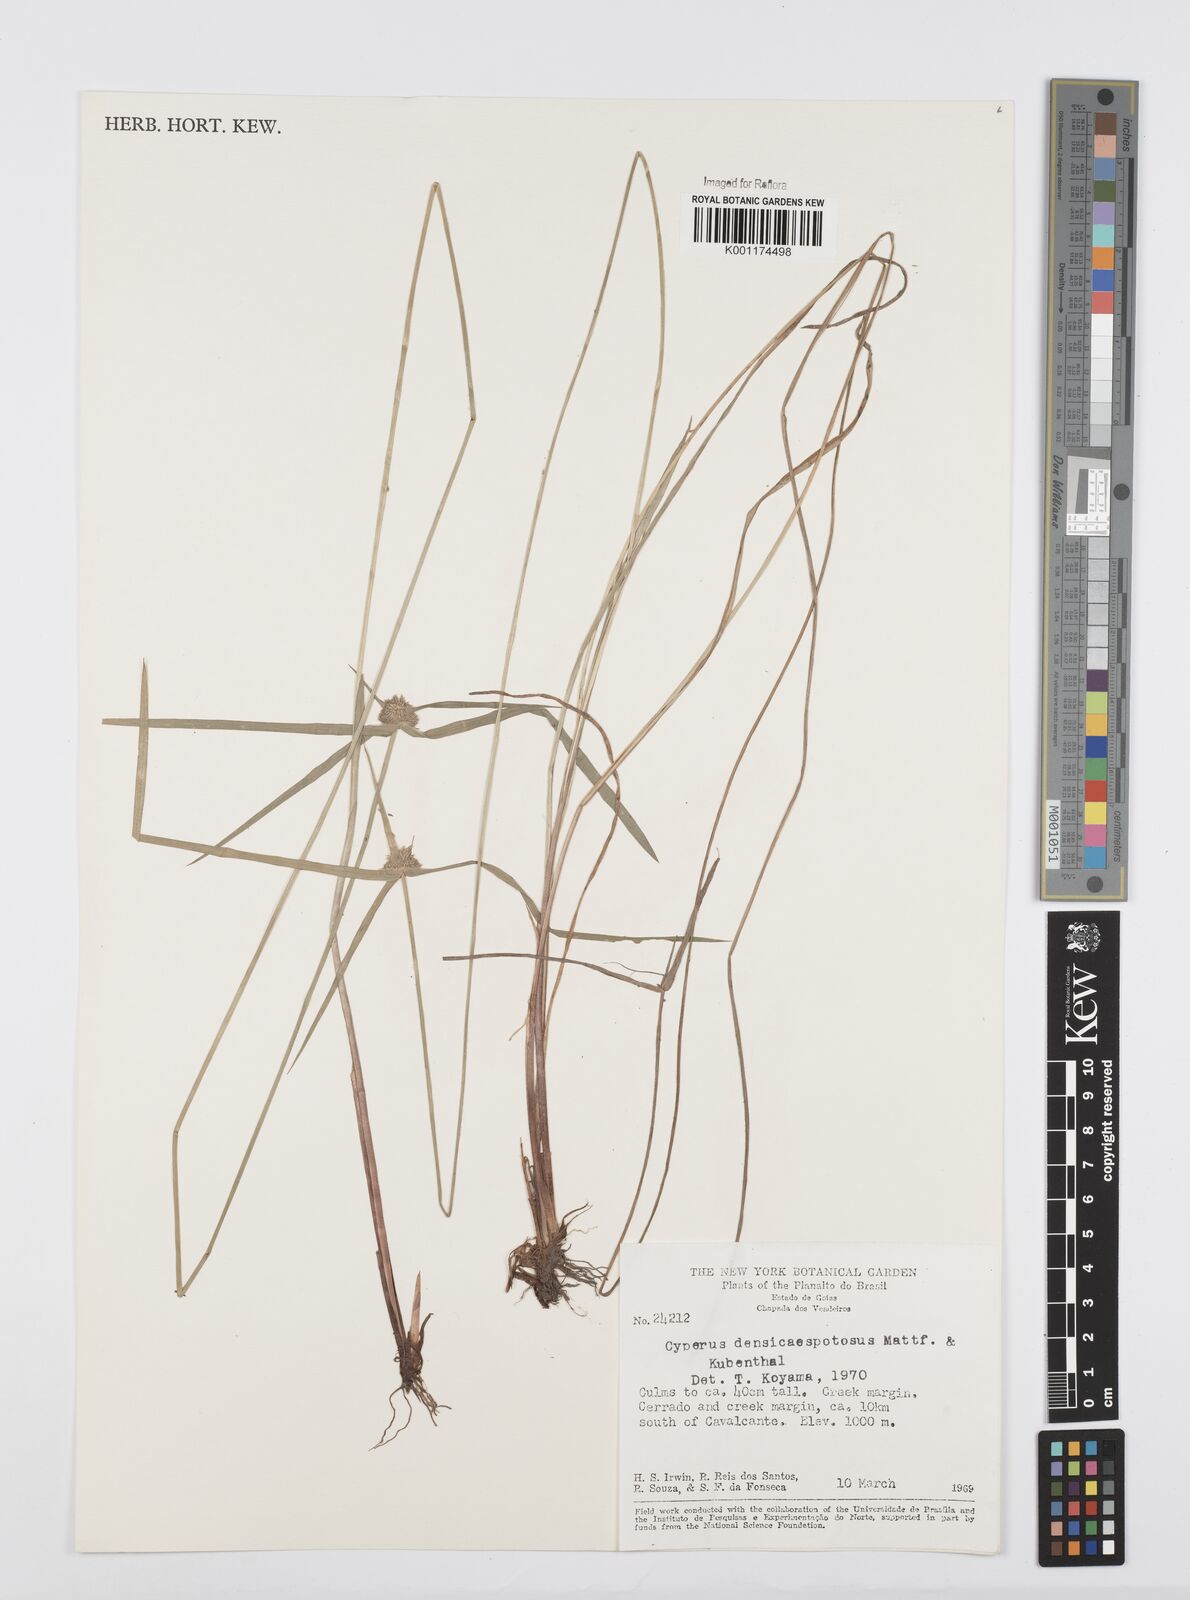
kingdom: Plantae
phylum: Tracheophyta
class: Liliopsida
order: Poales
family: Cyperaceae
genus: Cyperus
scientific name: Cyperus
